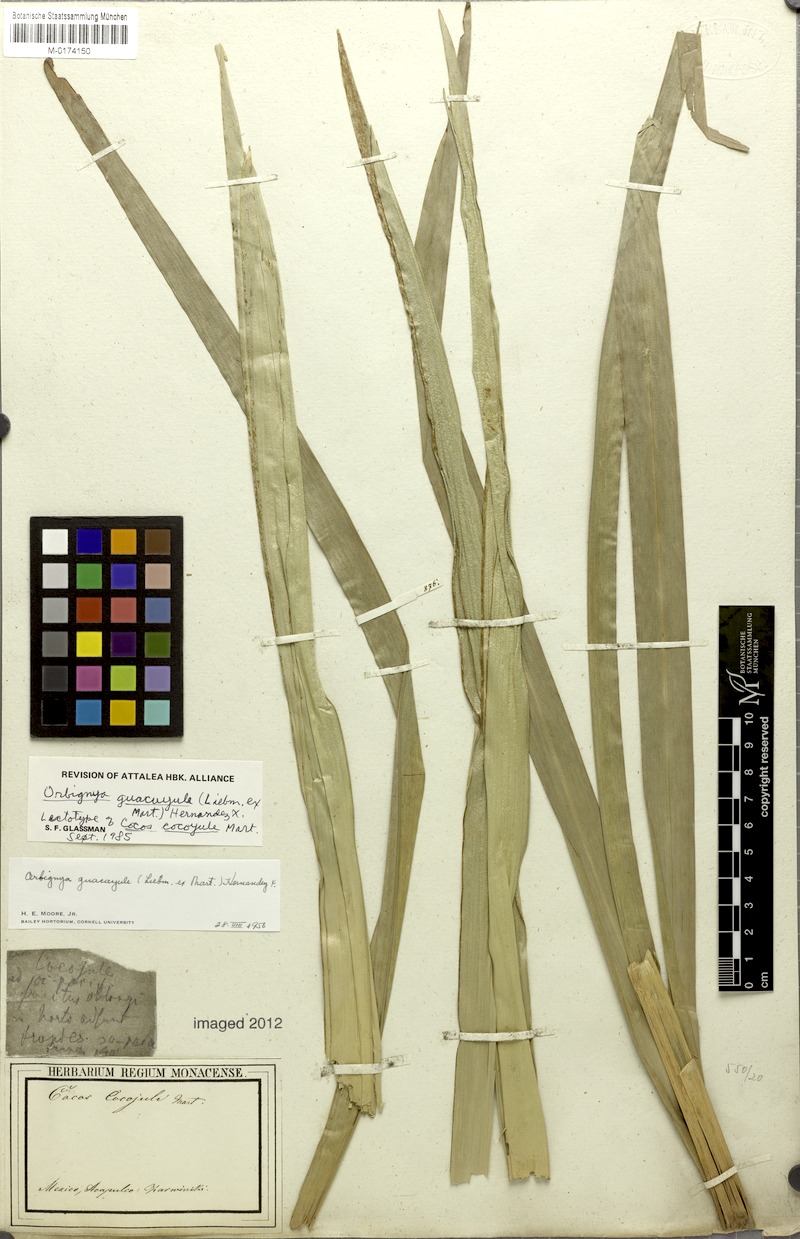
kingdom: Plantae
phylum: Tracheophyta
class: Liliopsida
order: Arecales
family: Arecaceae
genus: Attalea
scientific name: Attalea guacuyule
